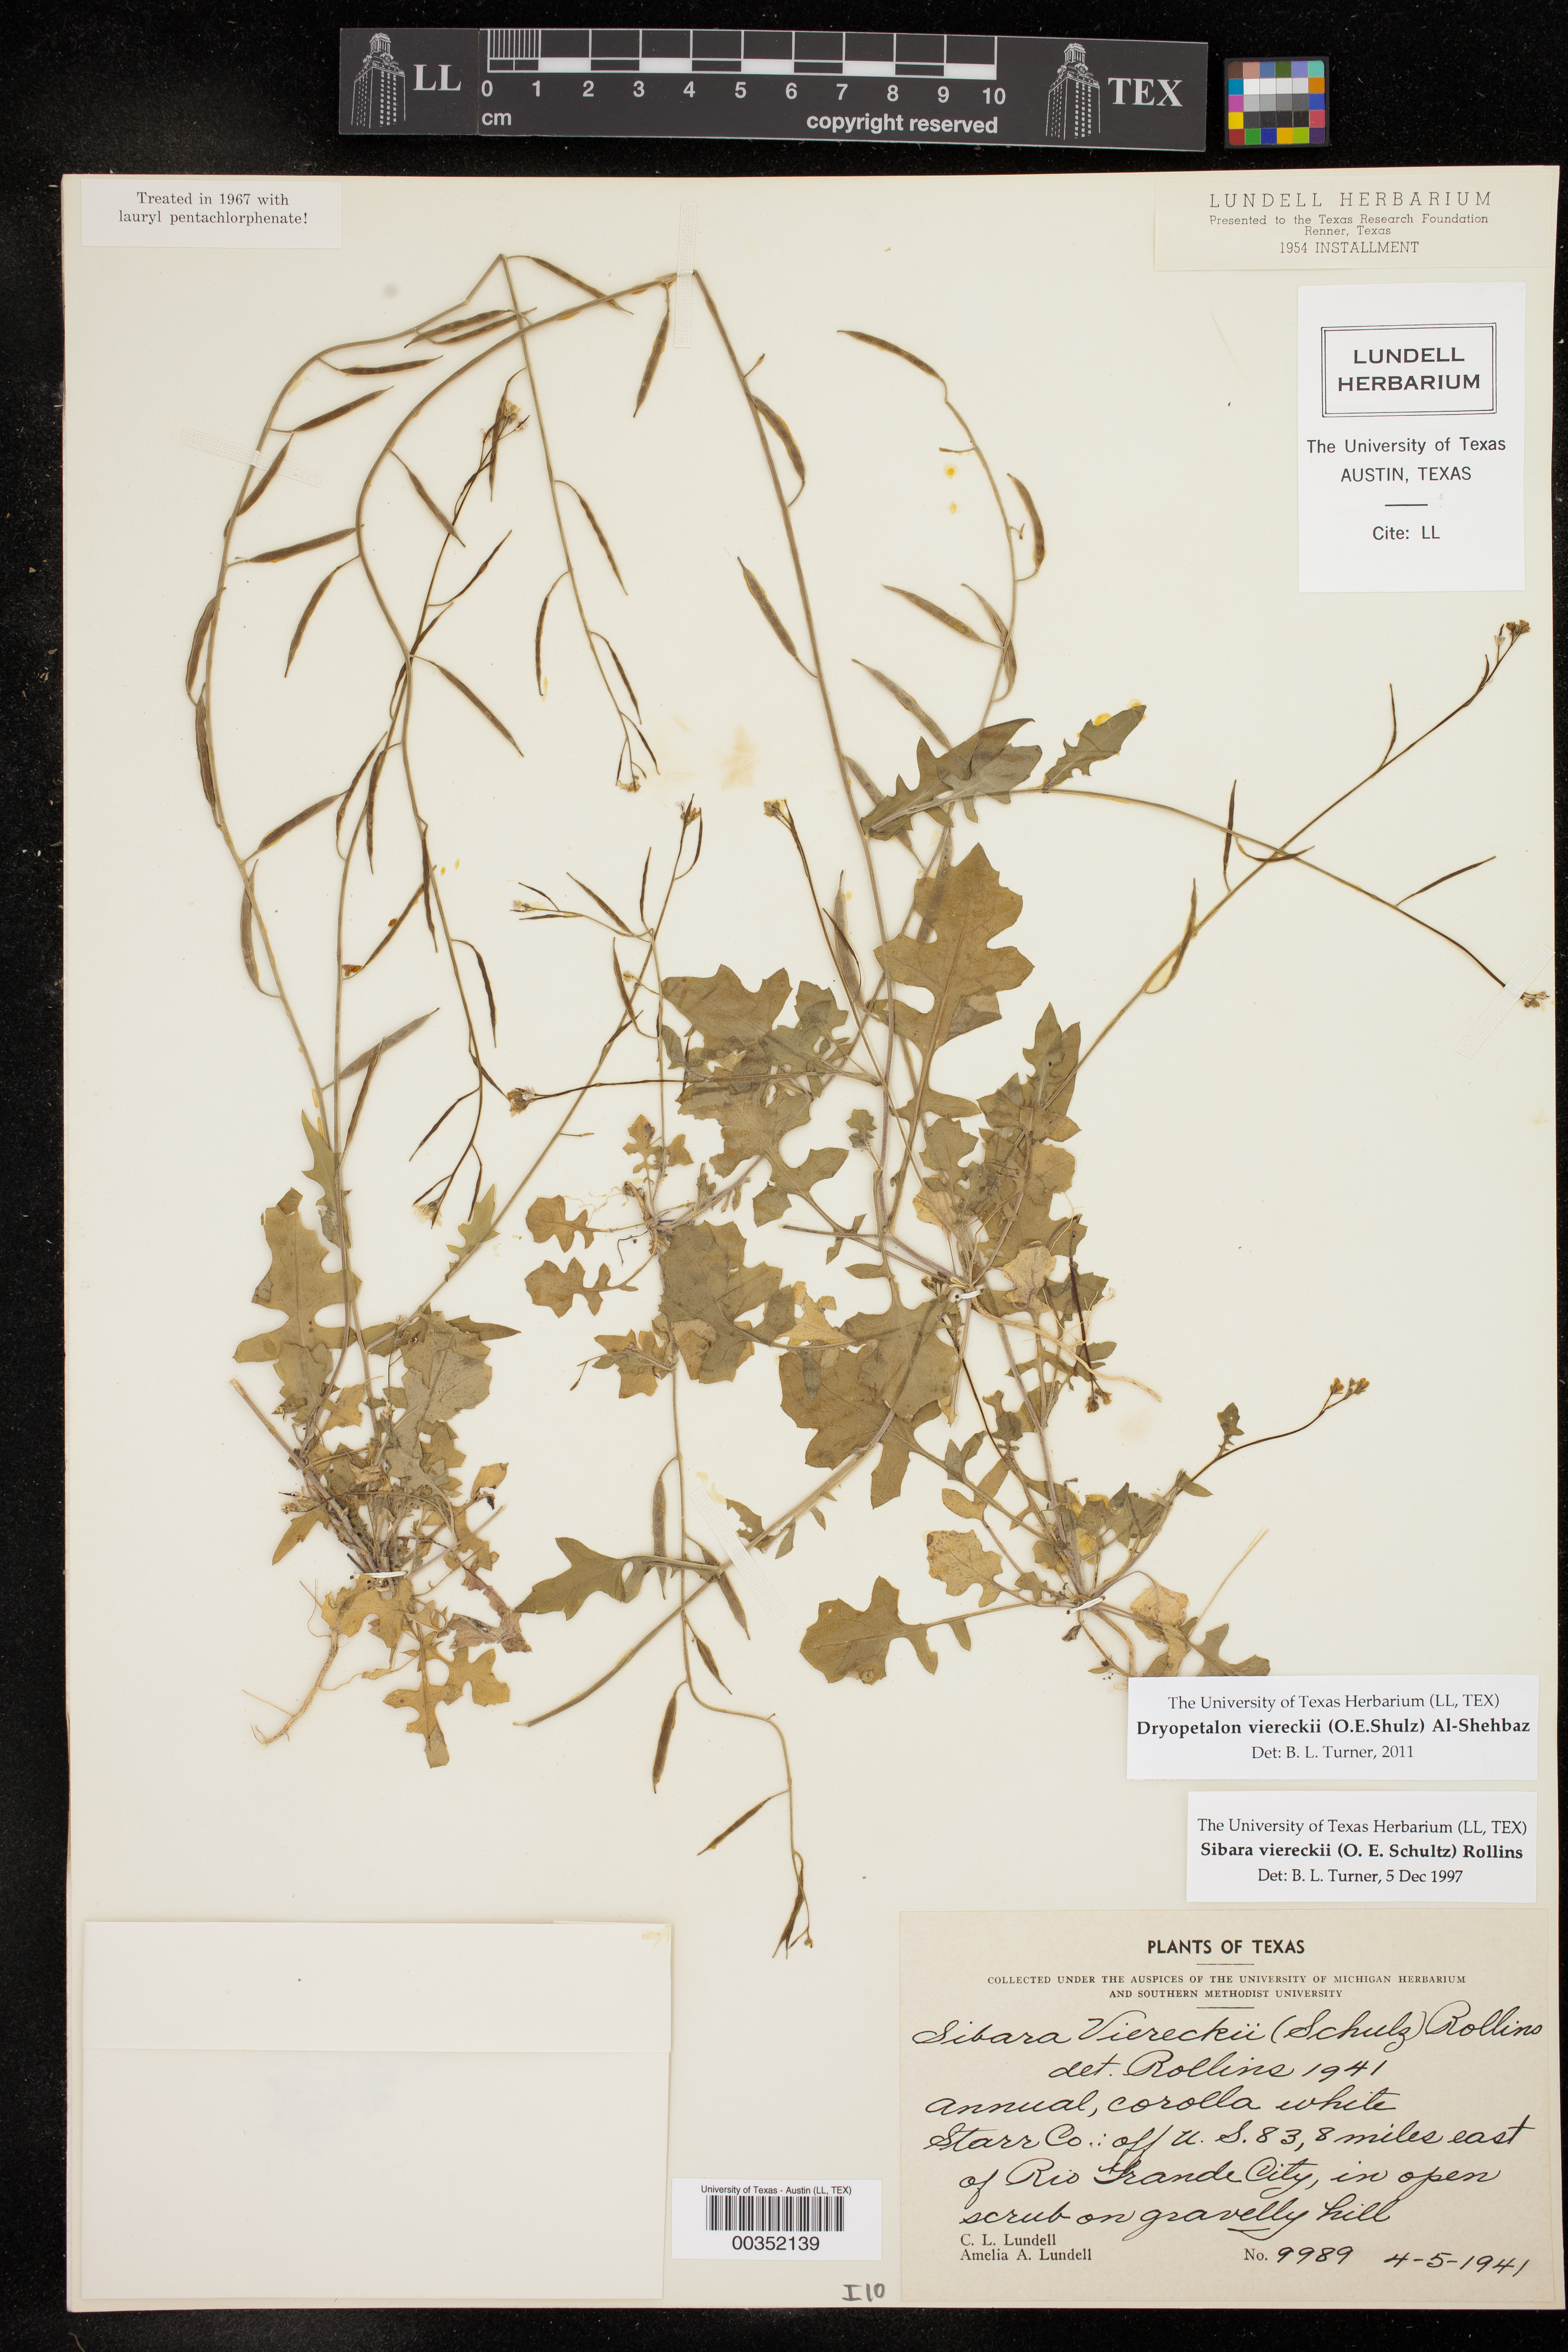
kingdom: Plantae
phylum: Tracheophyta
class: Magnoliopsida
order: Brassicales
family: Brassicaceae
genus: Phravenia
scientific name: Phravenia viereckii
